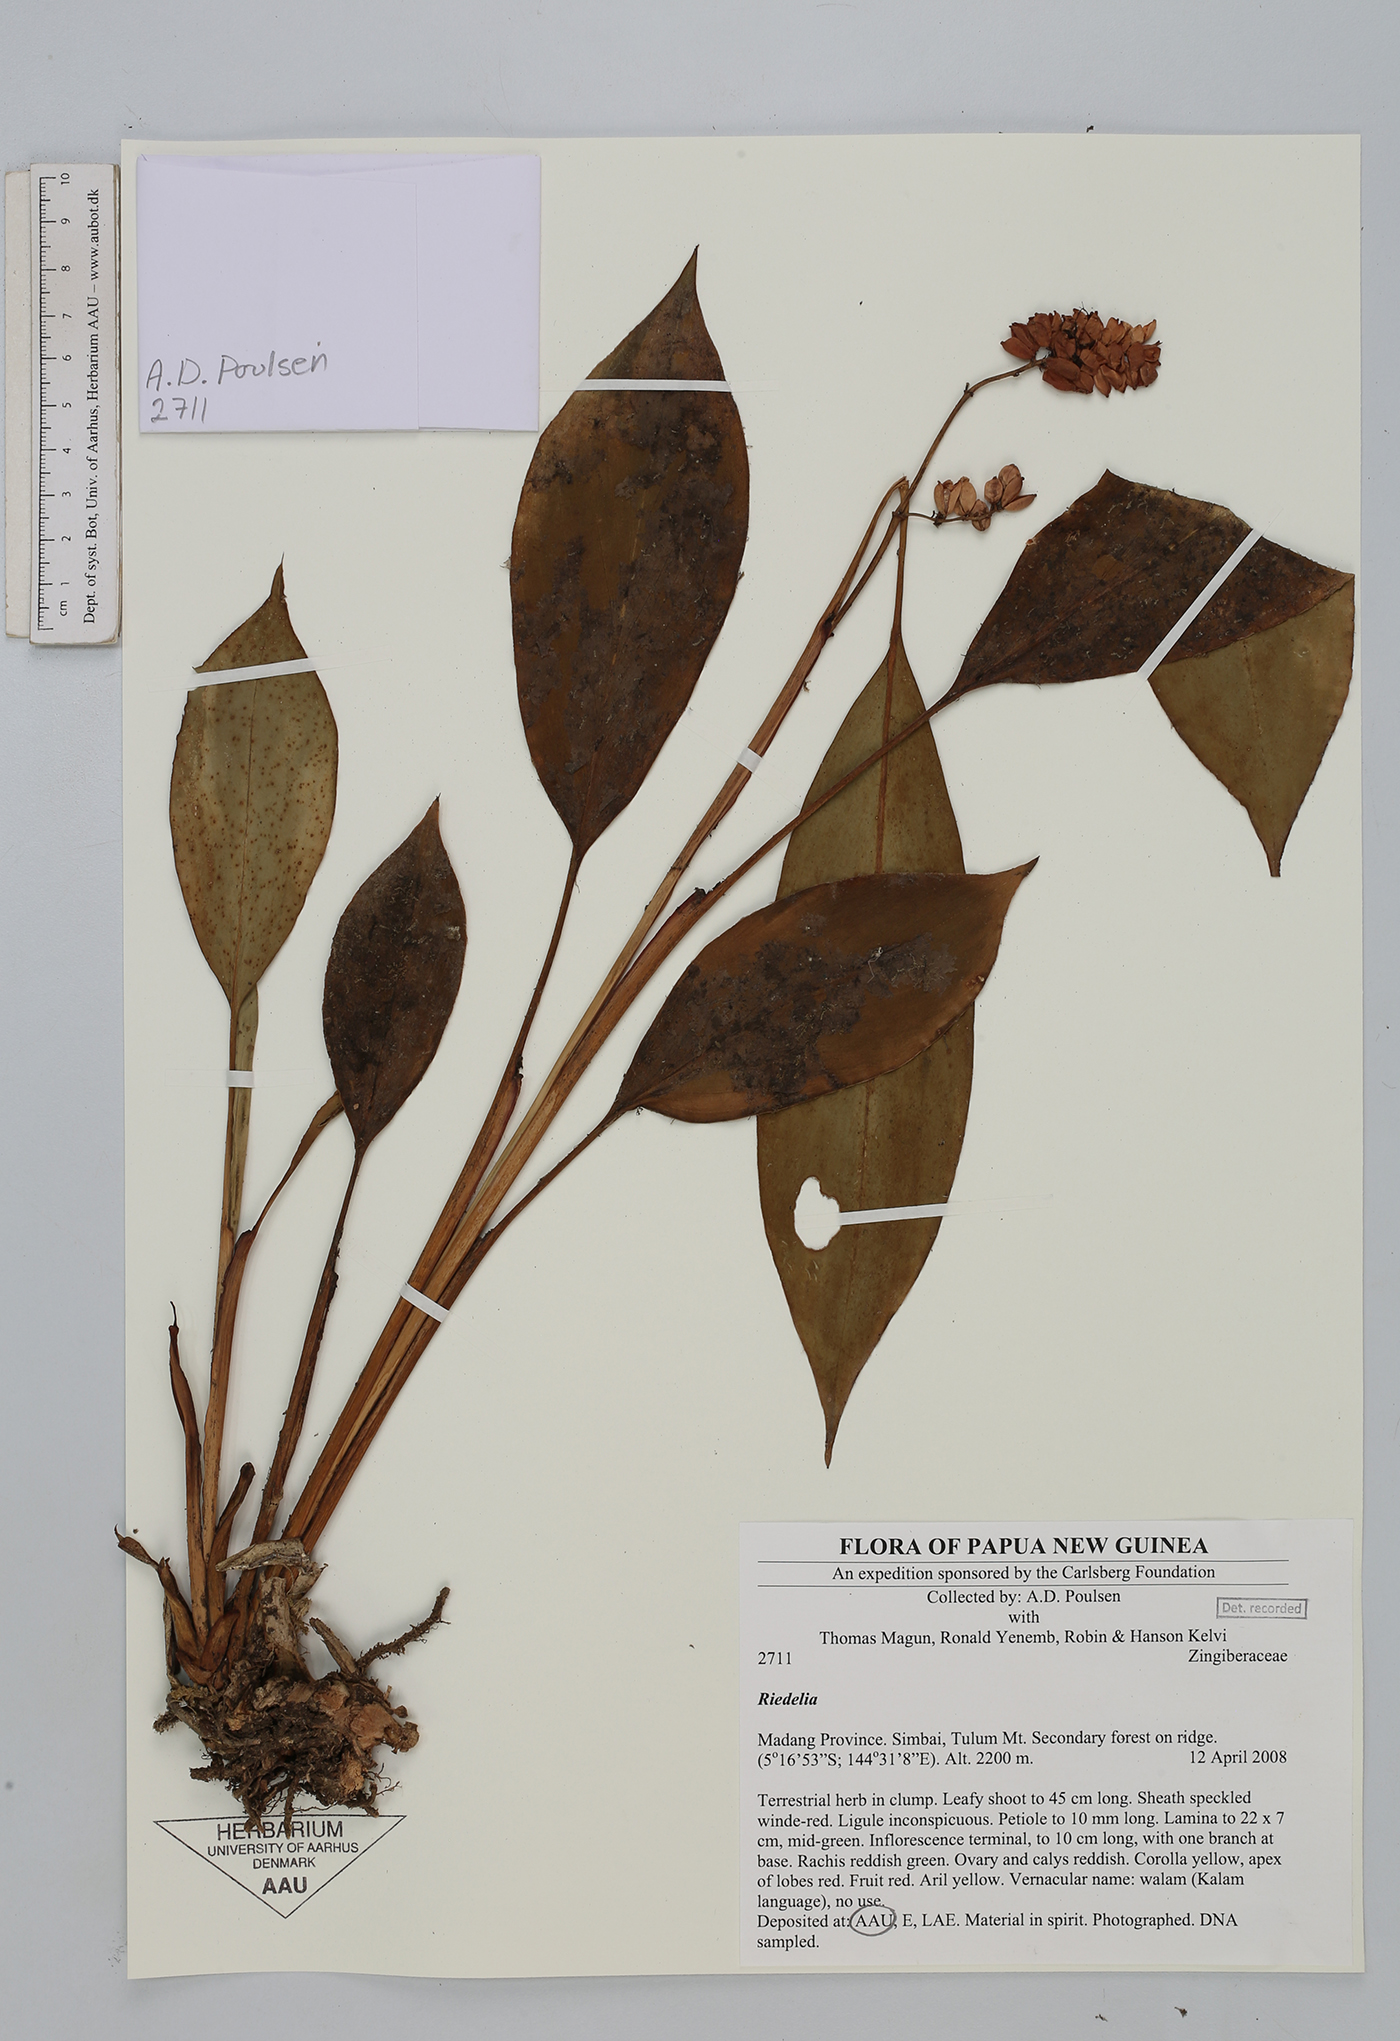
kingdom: Plantae
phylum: Tracheophyta
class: Liliopsida
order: Zingiberales
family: Zingiberaceae
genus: Riedelia
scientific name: Riedelia
